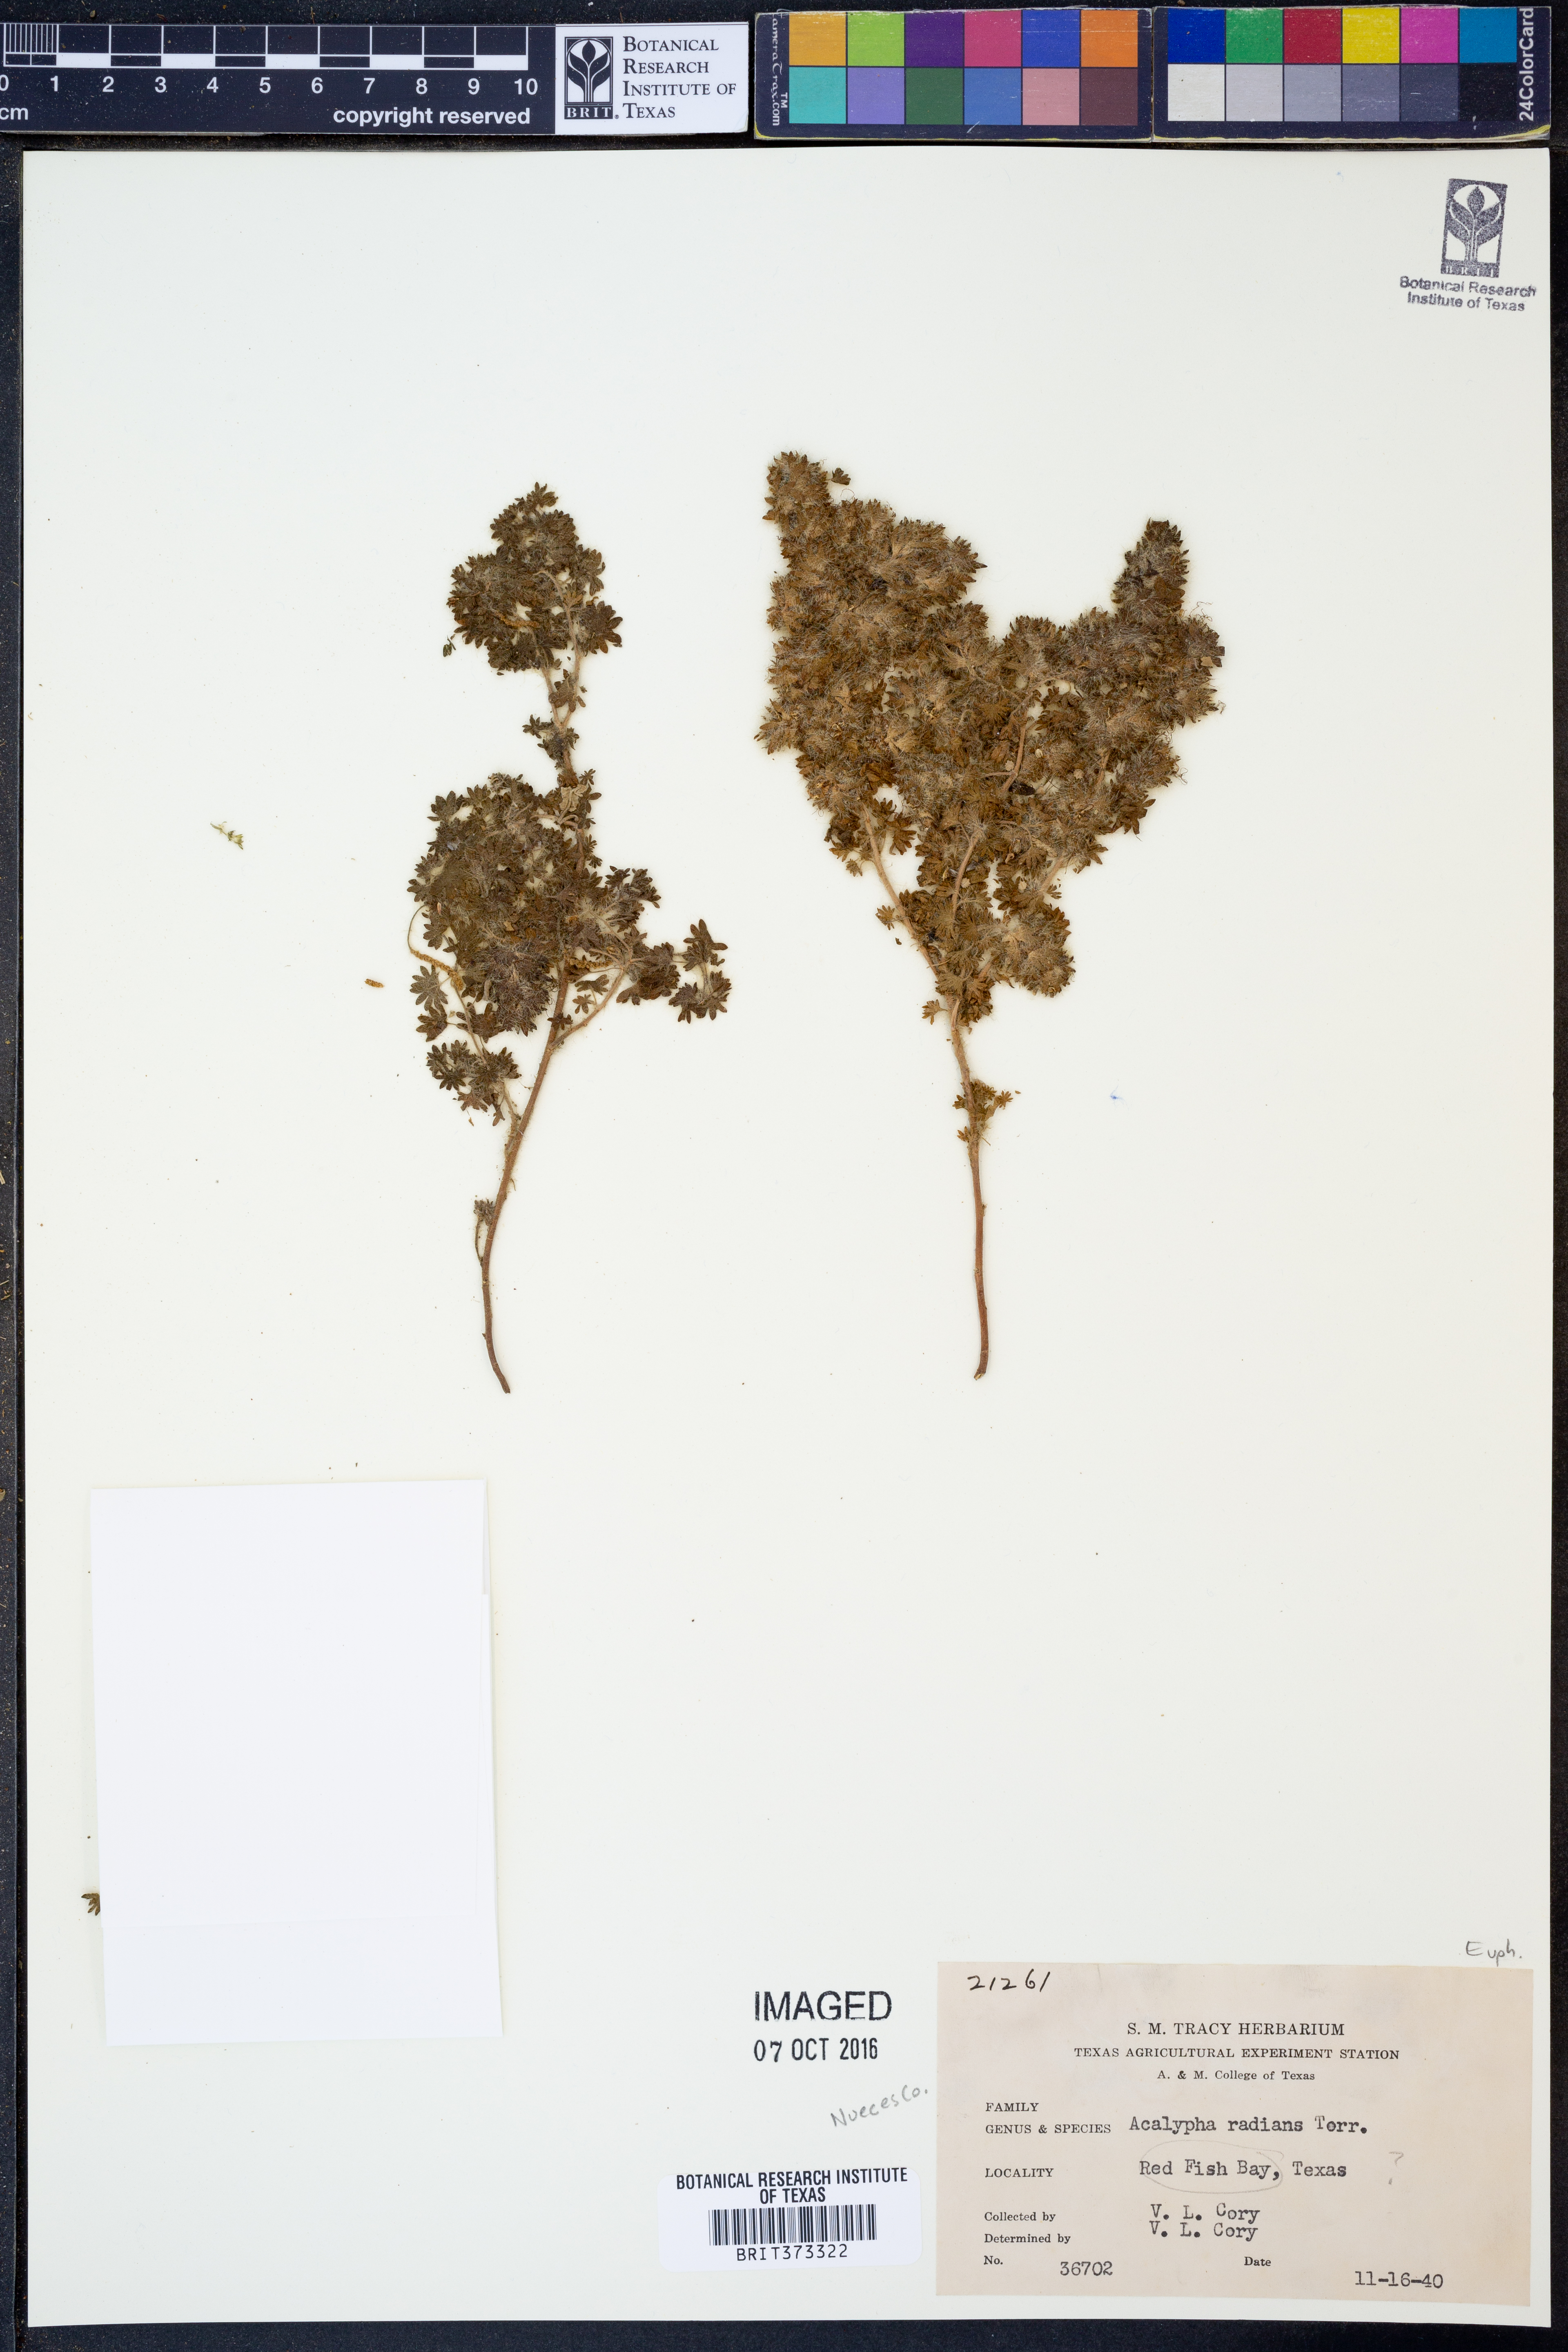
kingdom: Plantae
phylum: Tracheophyta
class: Magnoliopsida
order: Malpighiales
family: Euphorbiaceae
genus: Acalypha
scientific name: Acalypha radians
